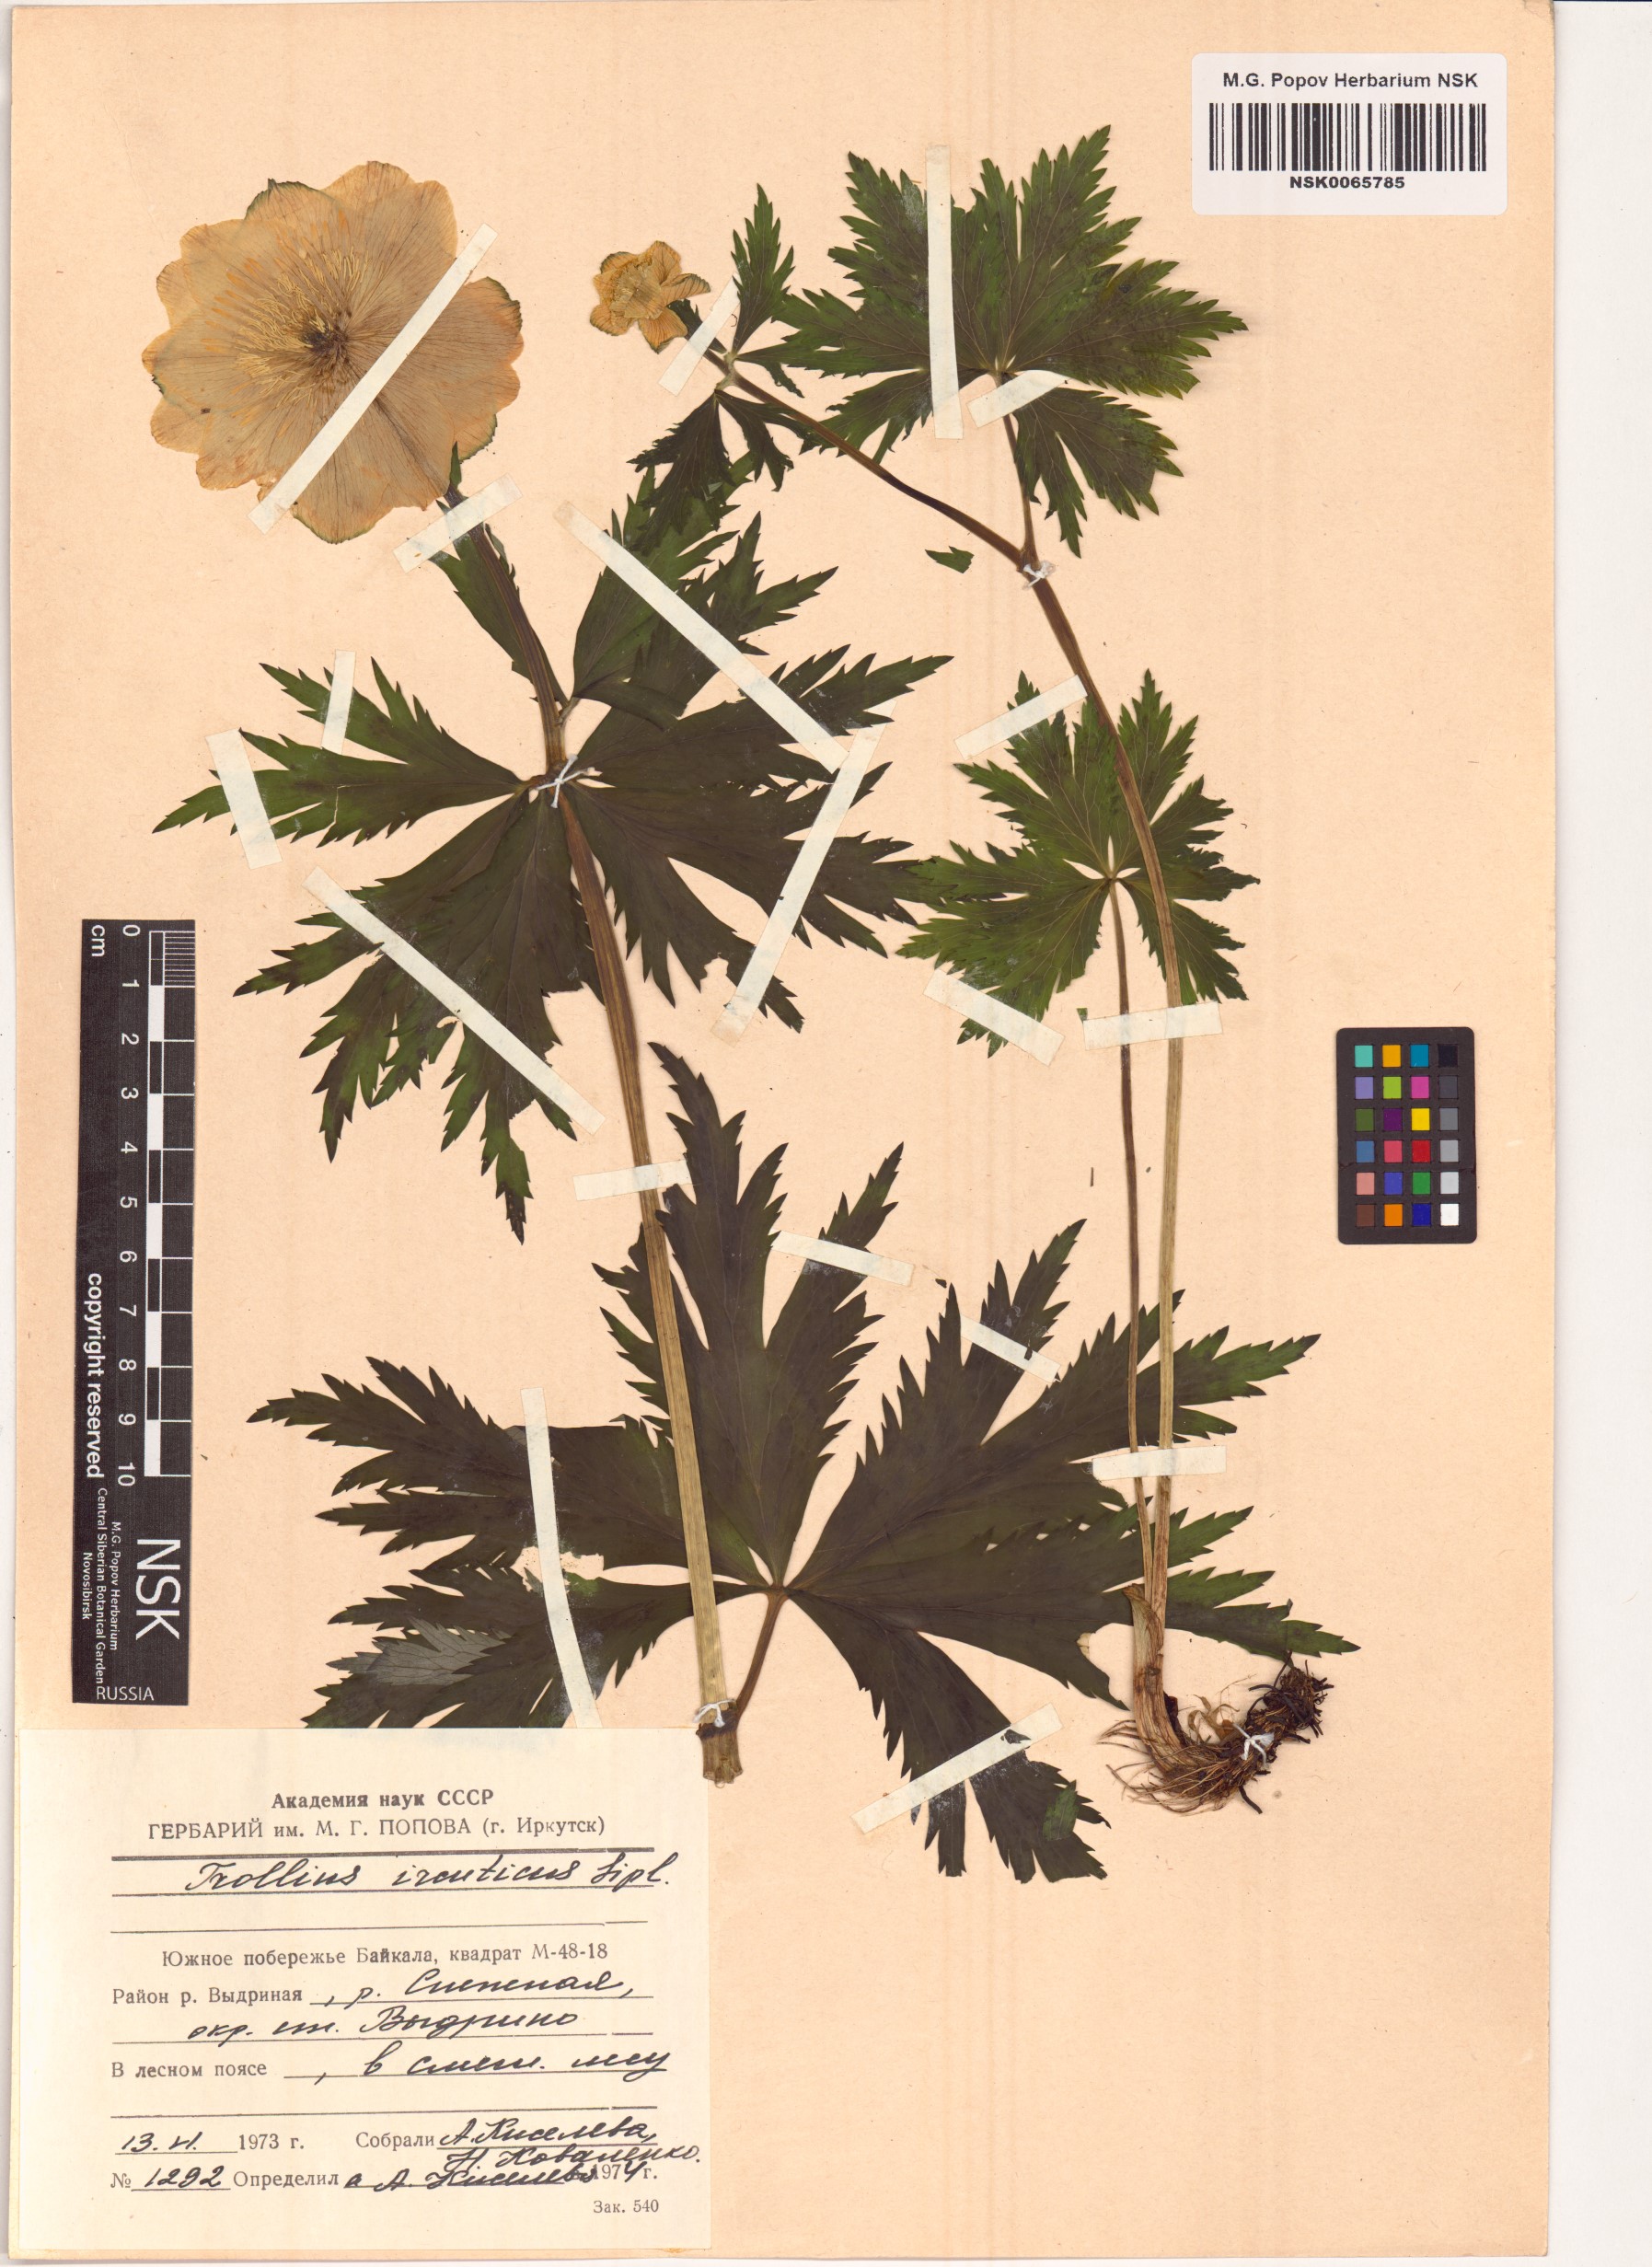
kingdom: Plantae
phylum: Tracheophyta
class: Magnoliopsida
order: Ranunculales
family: Ranunculaceae
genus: Trollius
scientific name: Trollius kytmanovii
